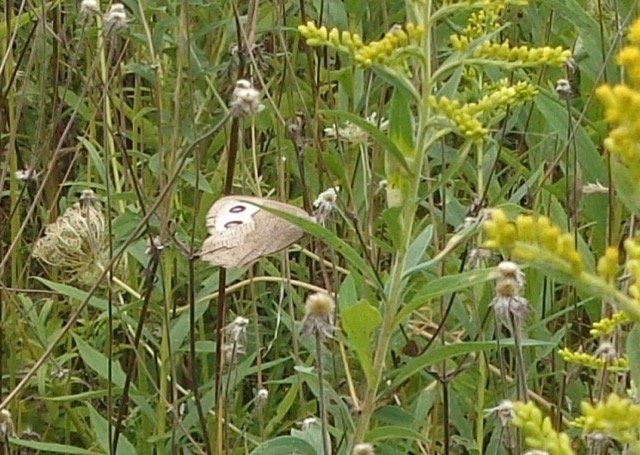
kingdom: Animalia
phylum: Arthropoda
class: Insecta
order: Lepidoptera
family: Nymphalidae
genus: Cercyonis
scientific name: Cercyonis pegala
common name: Common Wood-Nymph
